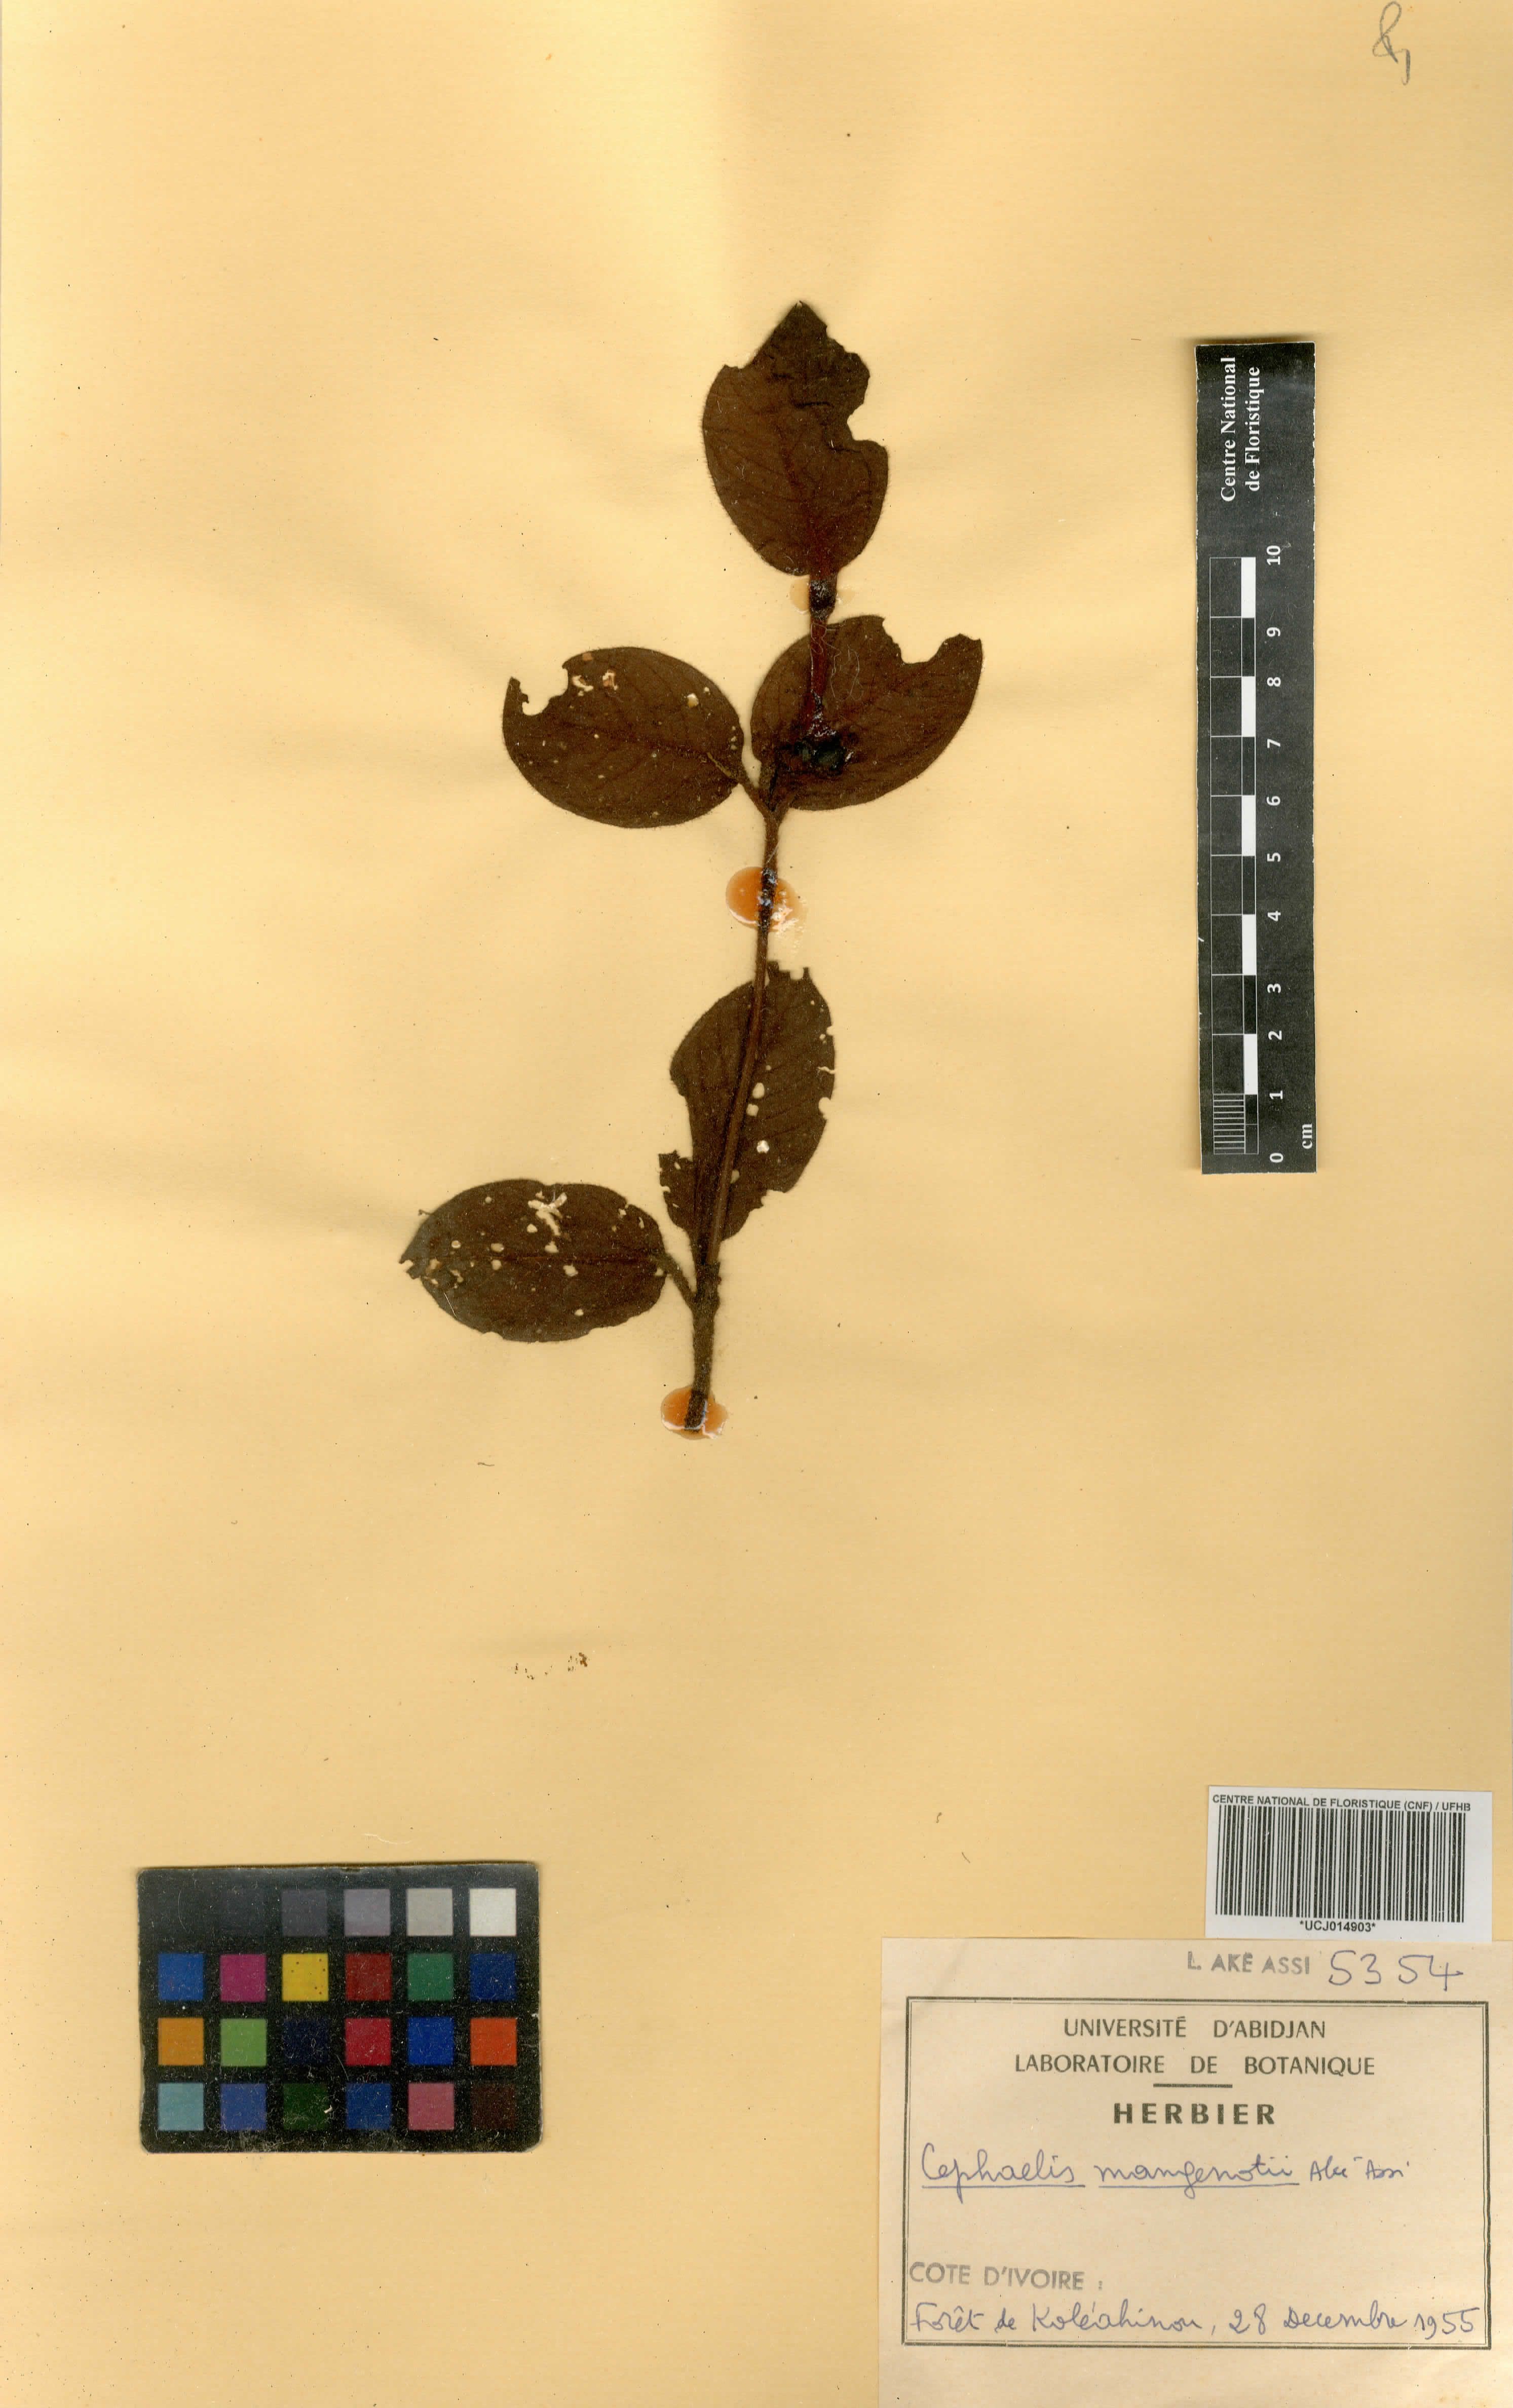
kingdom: Plantae
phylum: Tracheophyta
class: Magnoliopsida
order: Gentianales
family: Rubiaceae
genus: Psychotria
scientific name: Psychotria mangenotii
